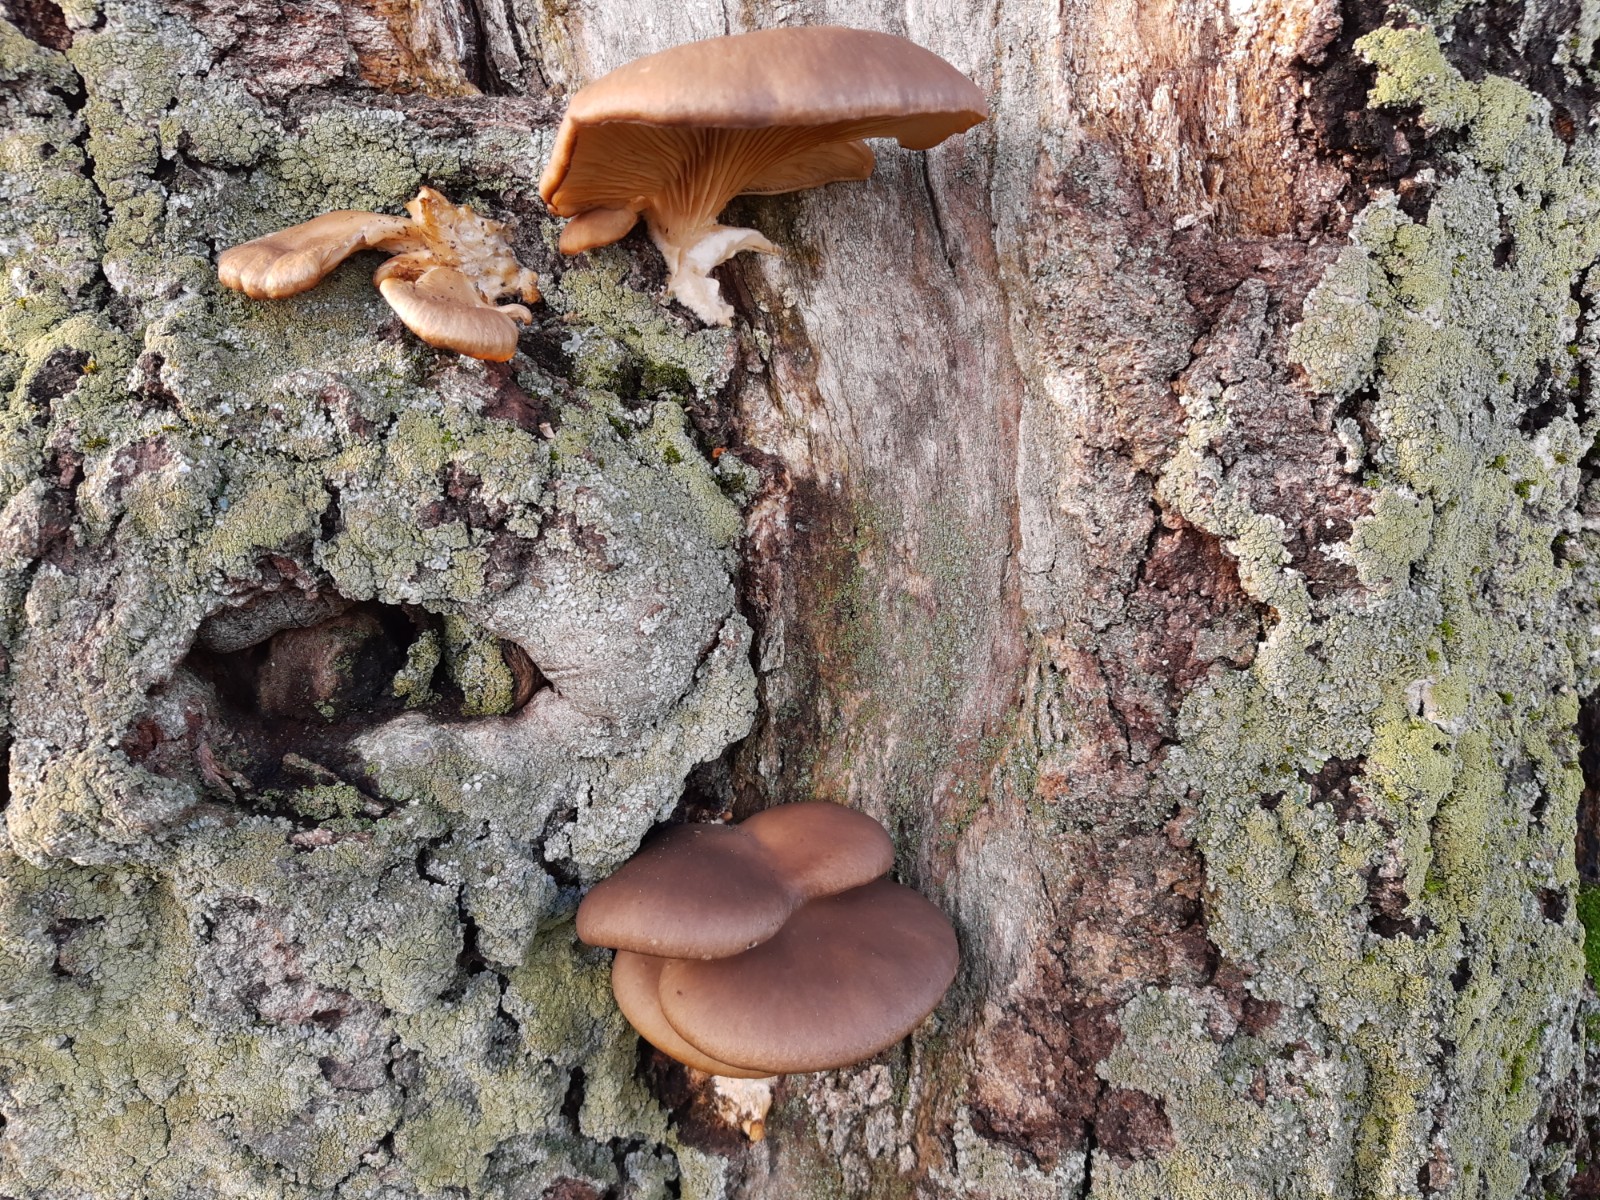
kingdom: Fungi
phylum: Basidiomycota
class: Agaricomycetes
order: Agaricales
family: Pleurotaceae
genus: Pleurotus
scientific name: Pleurotus ostreatus
